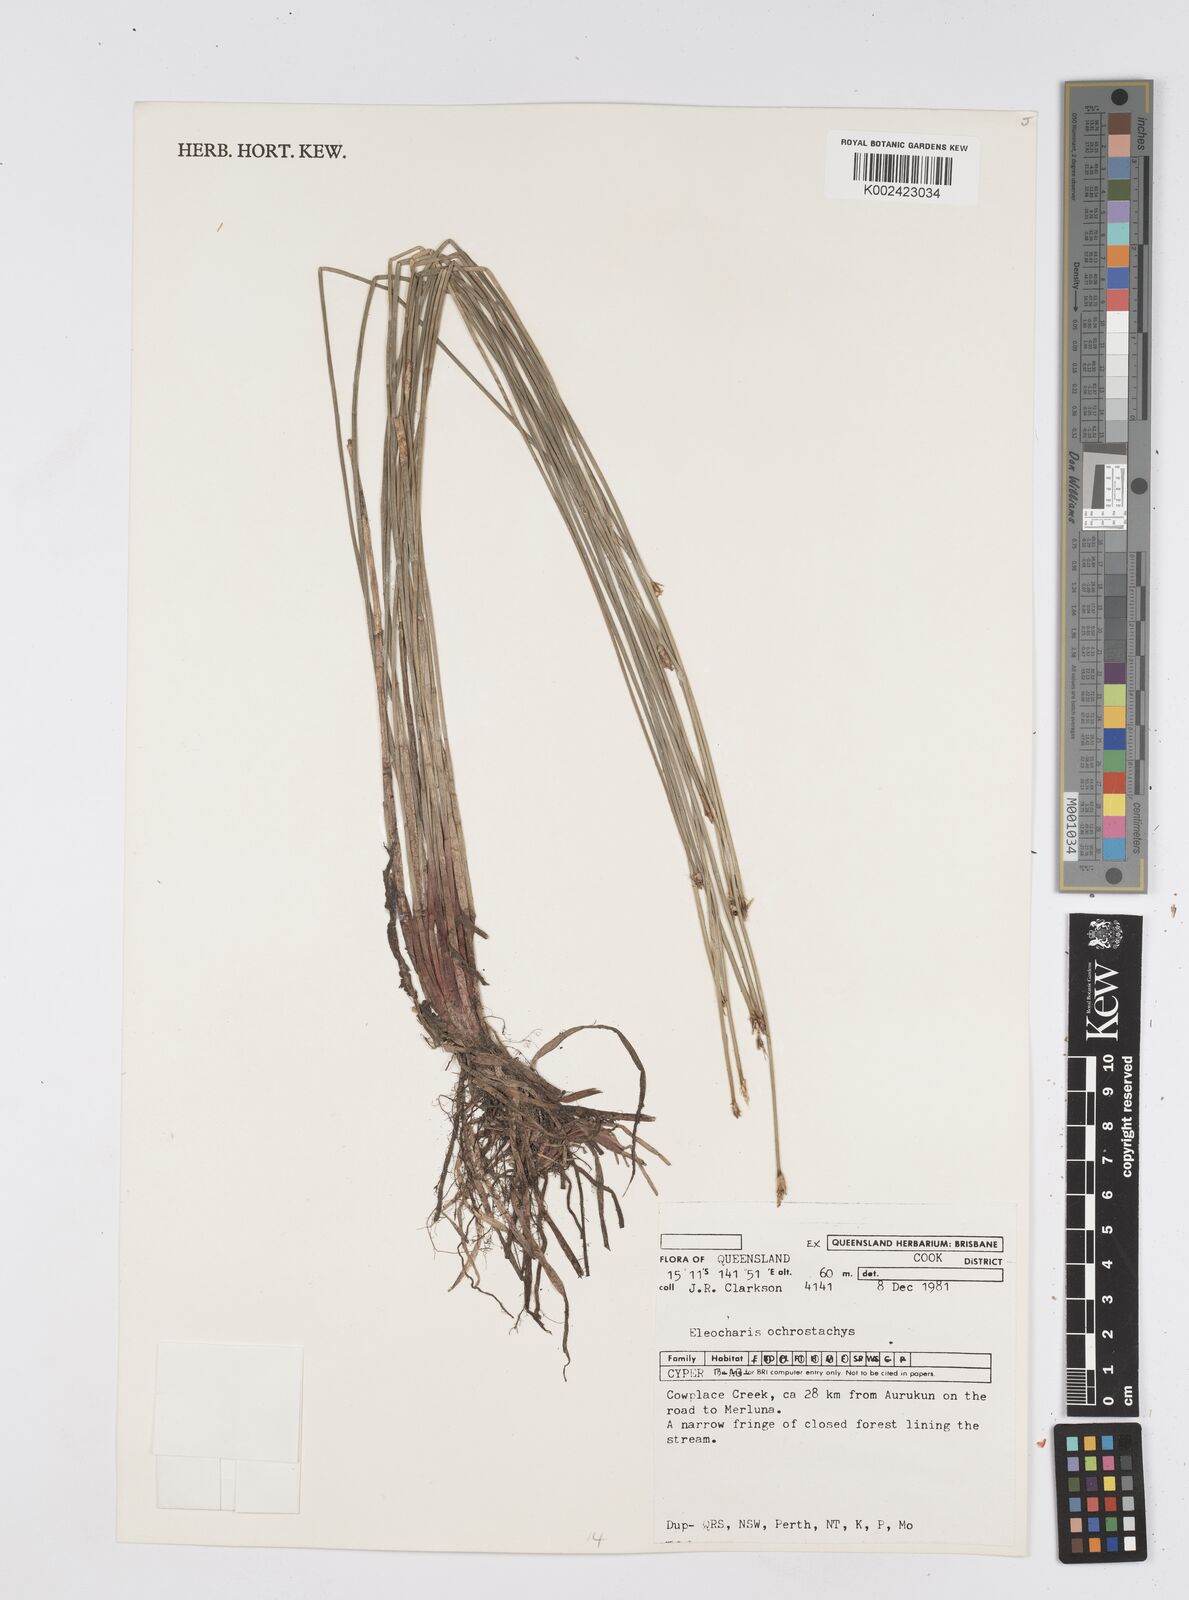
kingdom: Plantae
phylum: Tracheophyta
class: Liliopsida
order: Poales
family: Cyperaceae
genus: Eleocharis
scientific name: Eleocharis ochrostachys
